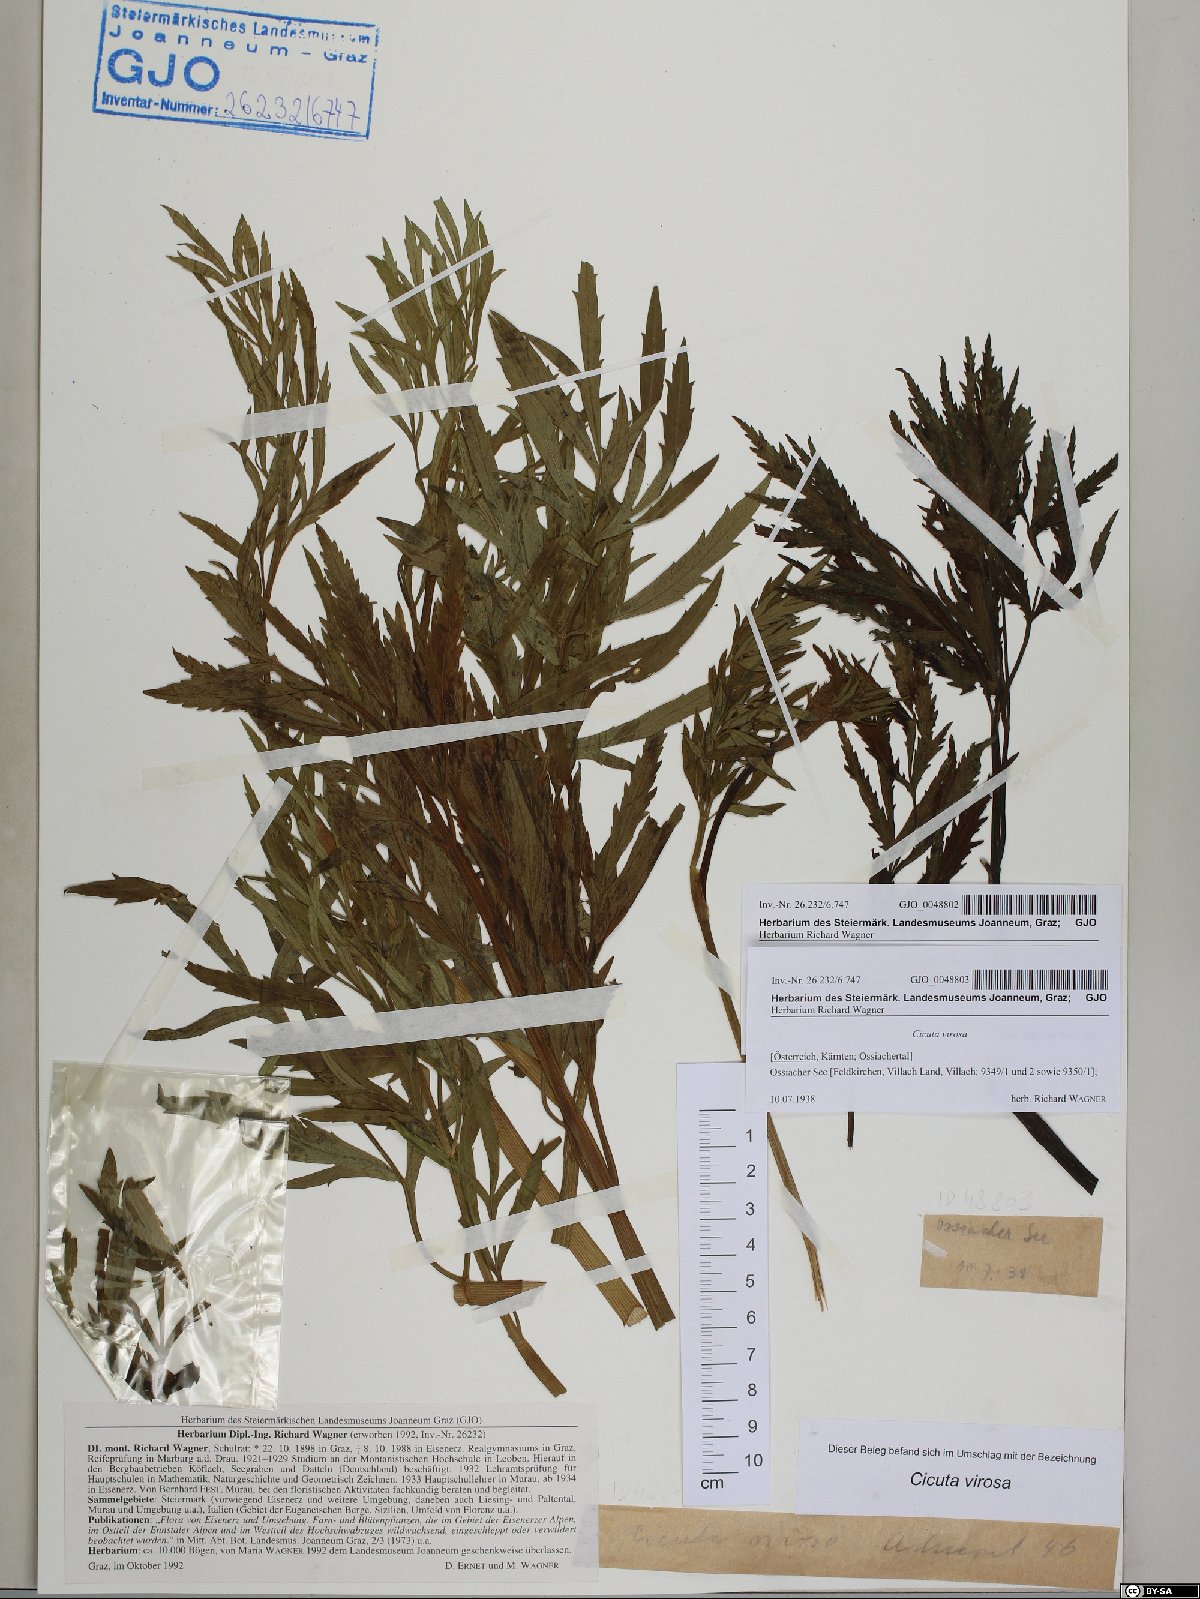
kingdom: Plantae
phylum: Tracheophyta
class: Magnoliopsida
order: Apiales
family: Apiaceae
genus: Cicuta
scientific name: Cicuta virosa
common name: Cowbane
